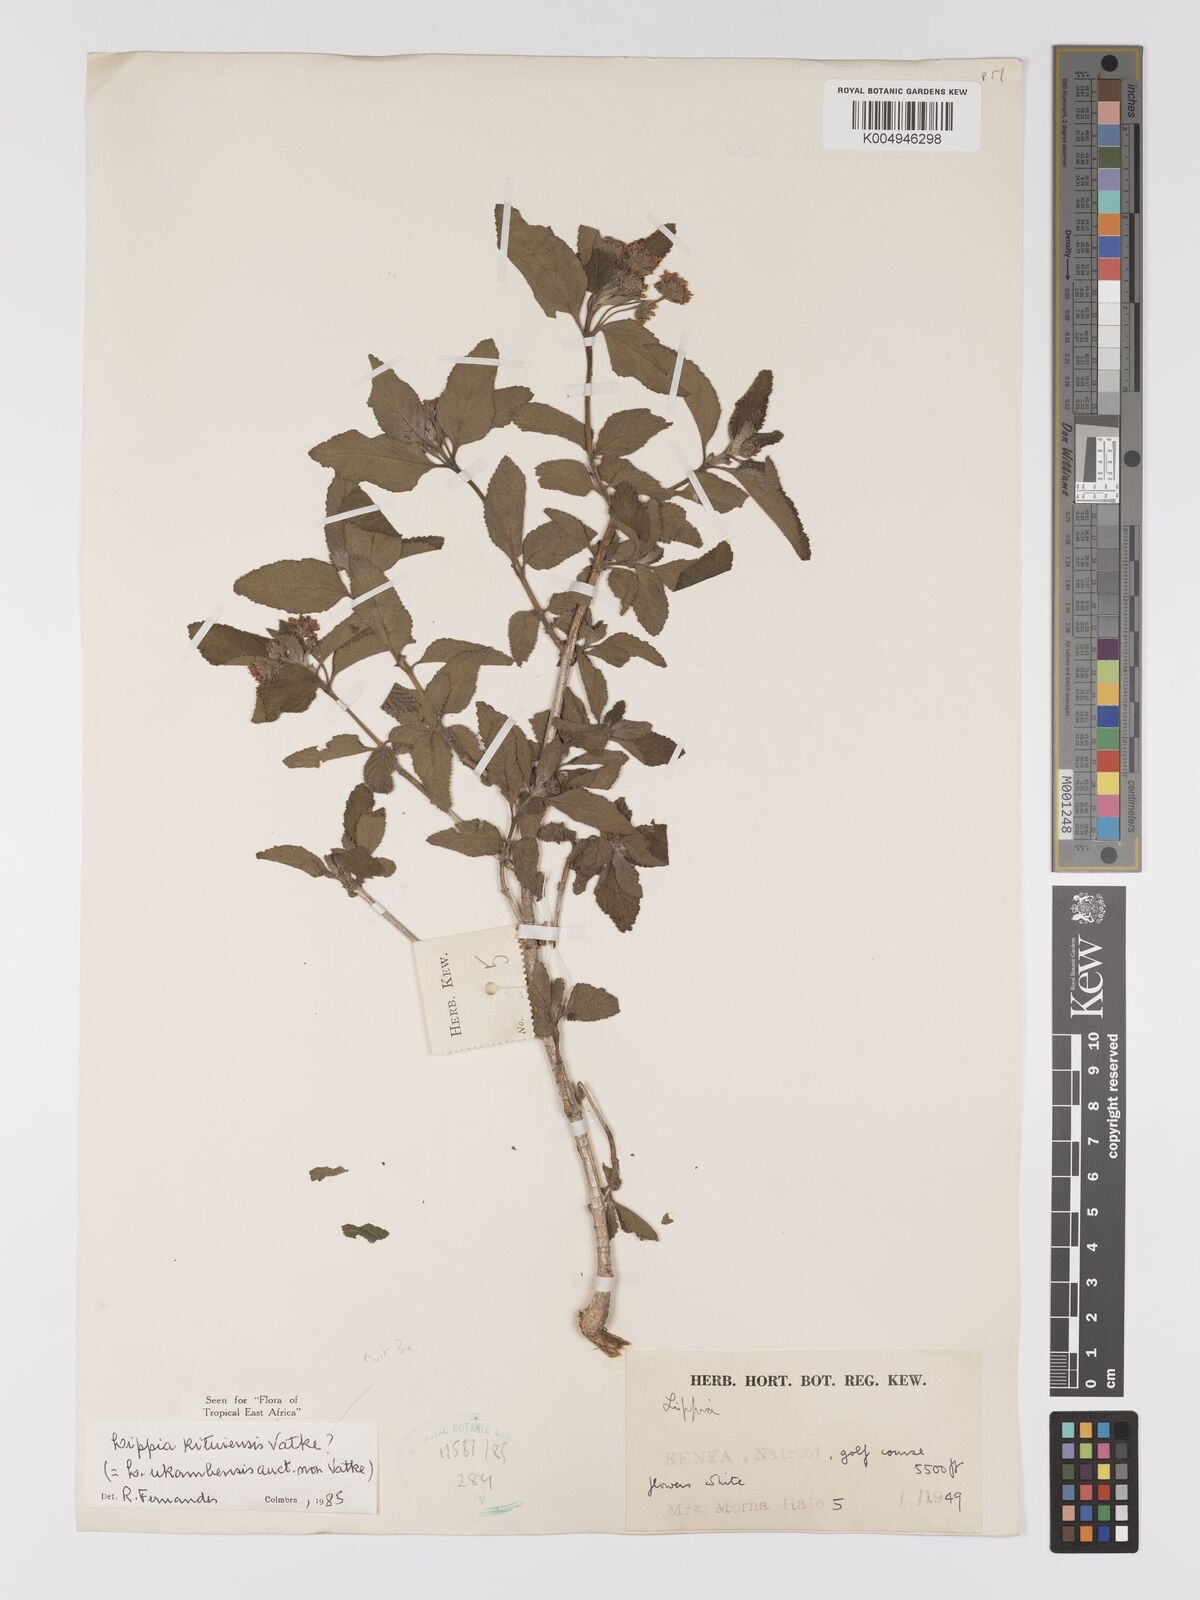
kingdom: Plantae
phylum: Tracheophyta
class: Magnoliopsida
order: Lamiales
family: Verbenaceae
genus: Lippia
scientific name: Lippia kituiensis
